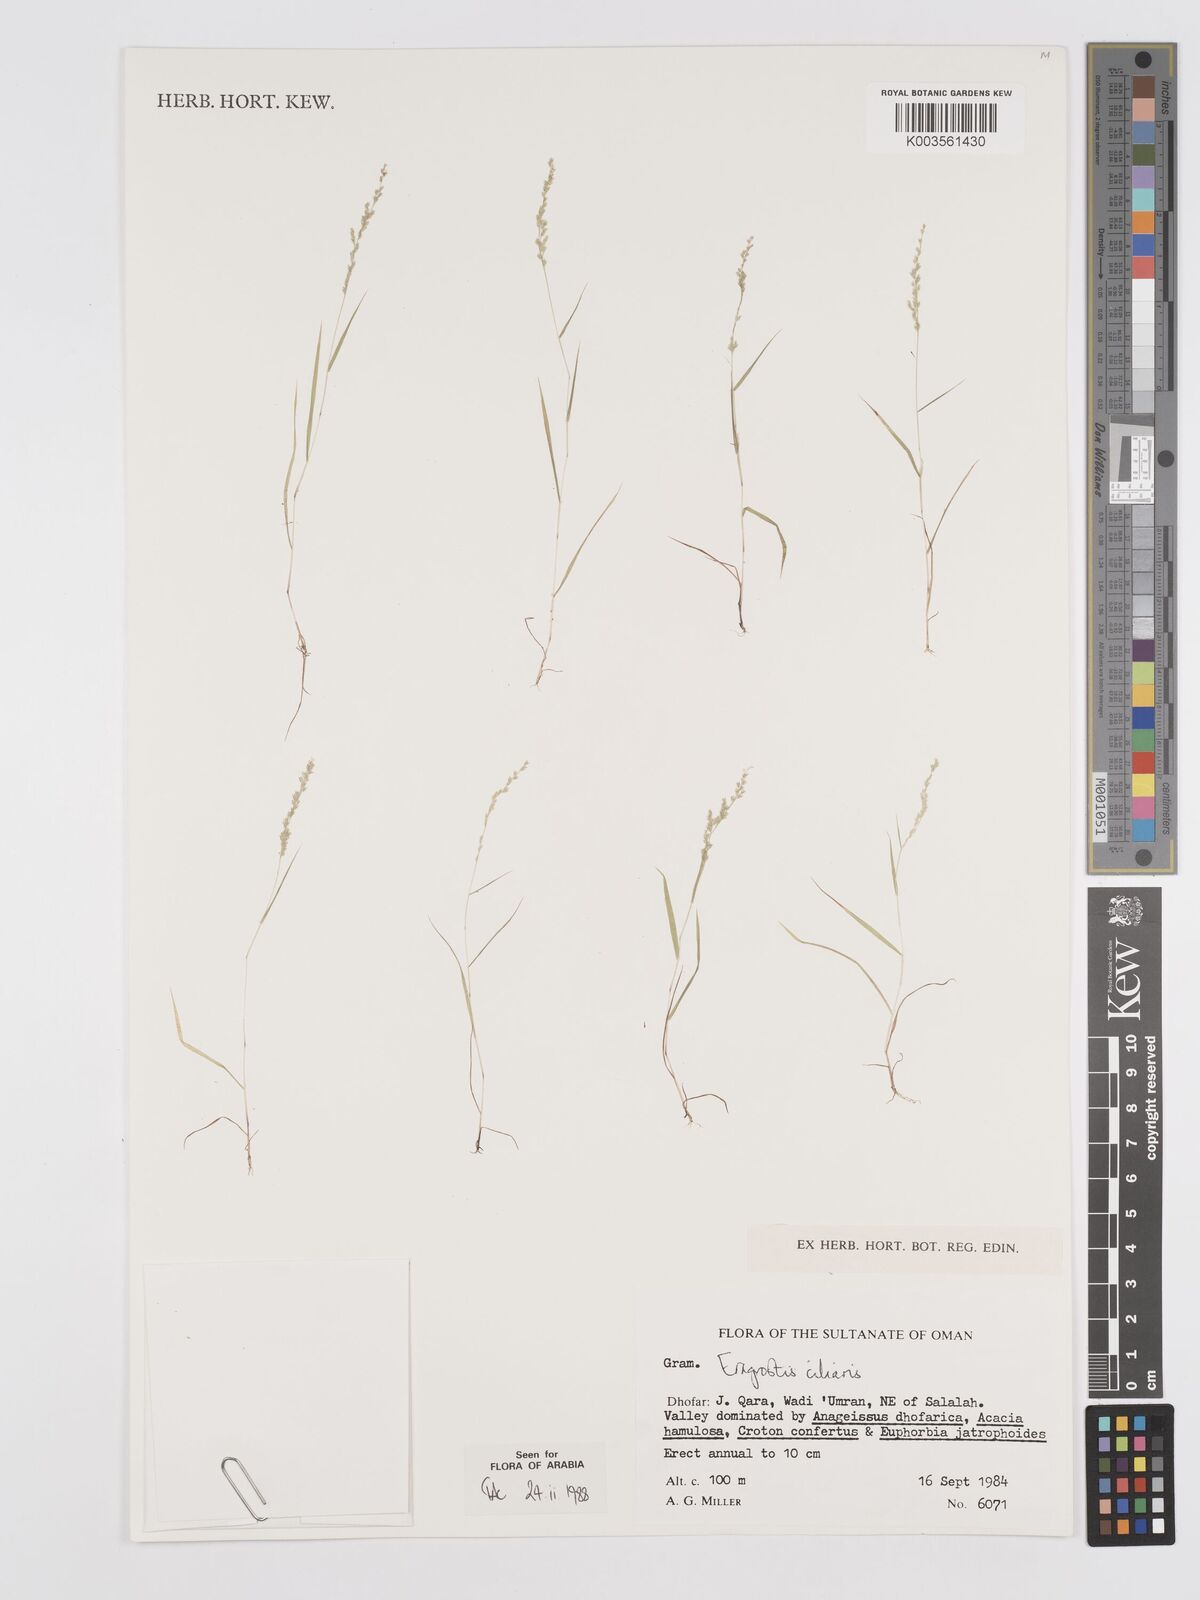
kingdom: Plantae
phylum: Tracheophyta
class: Liliopsida
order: Poales
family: Poaceae
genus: Eragrostis
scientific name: Eragrostis ciliaris
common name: Gophertail lovegrass
